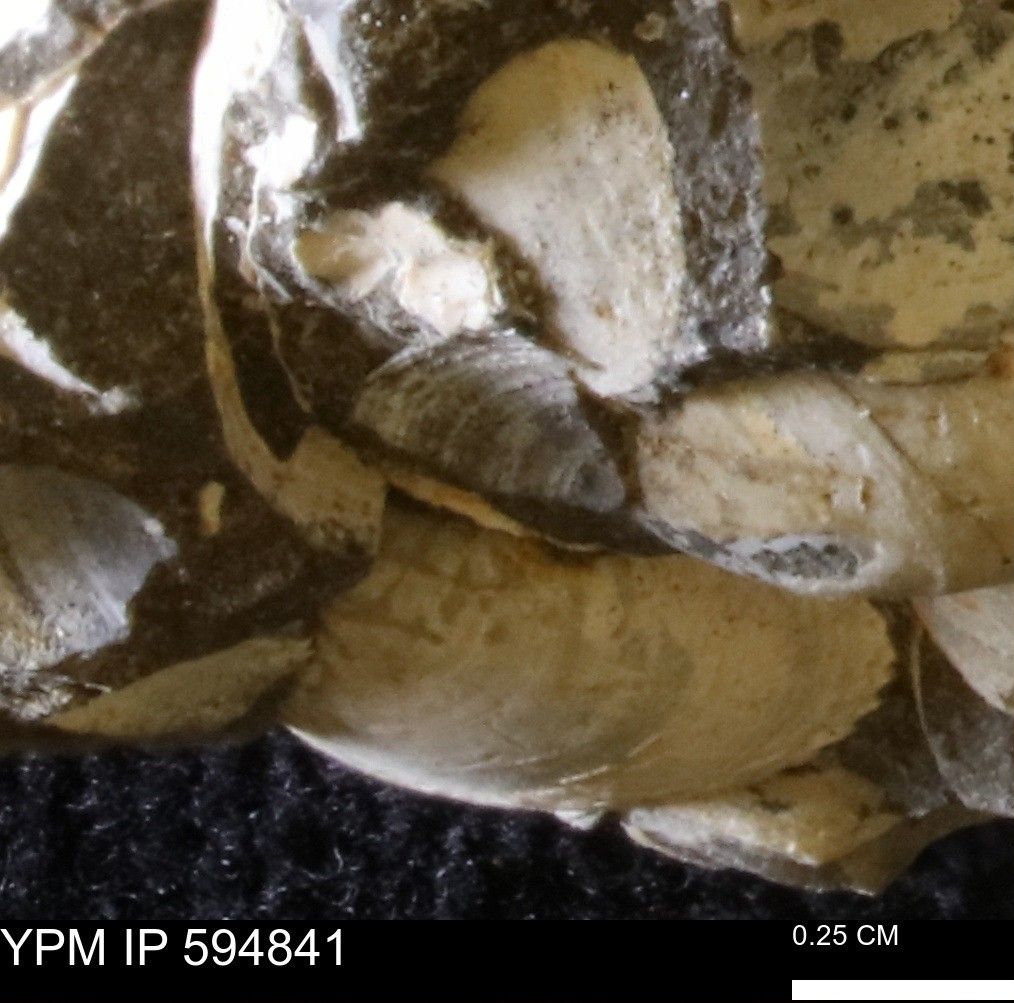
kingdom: Animalia
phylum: Mollusca
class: Bivalvia
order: Arcida
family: Limopsidae
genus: Limopsis
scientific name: Limopsis
